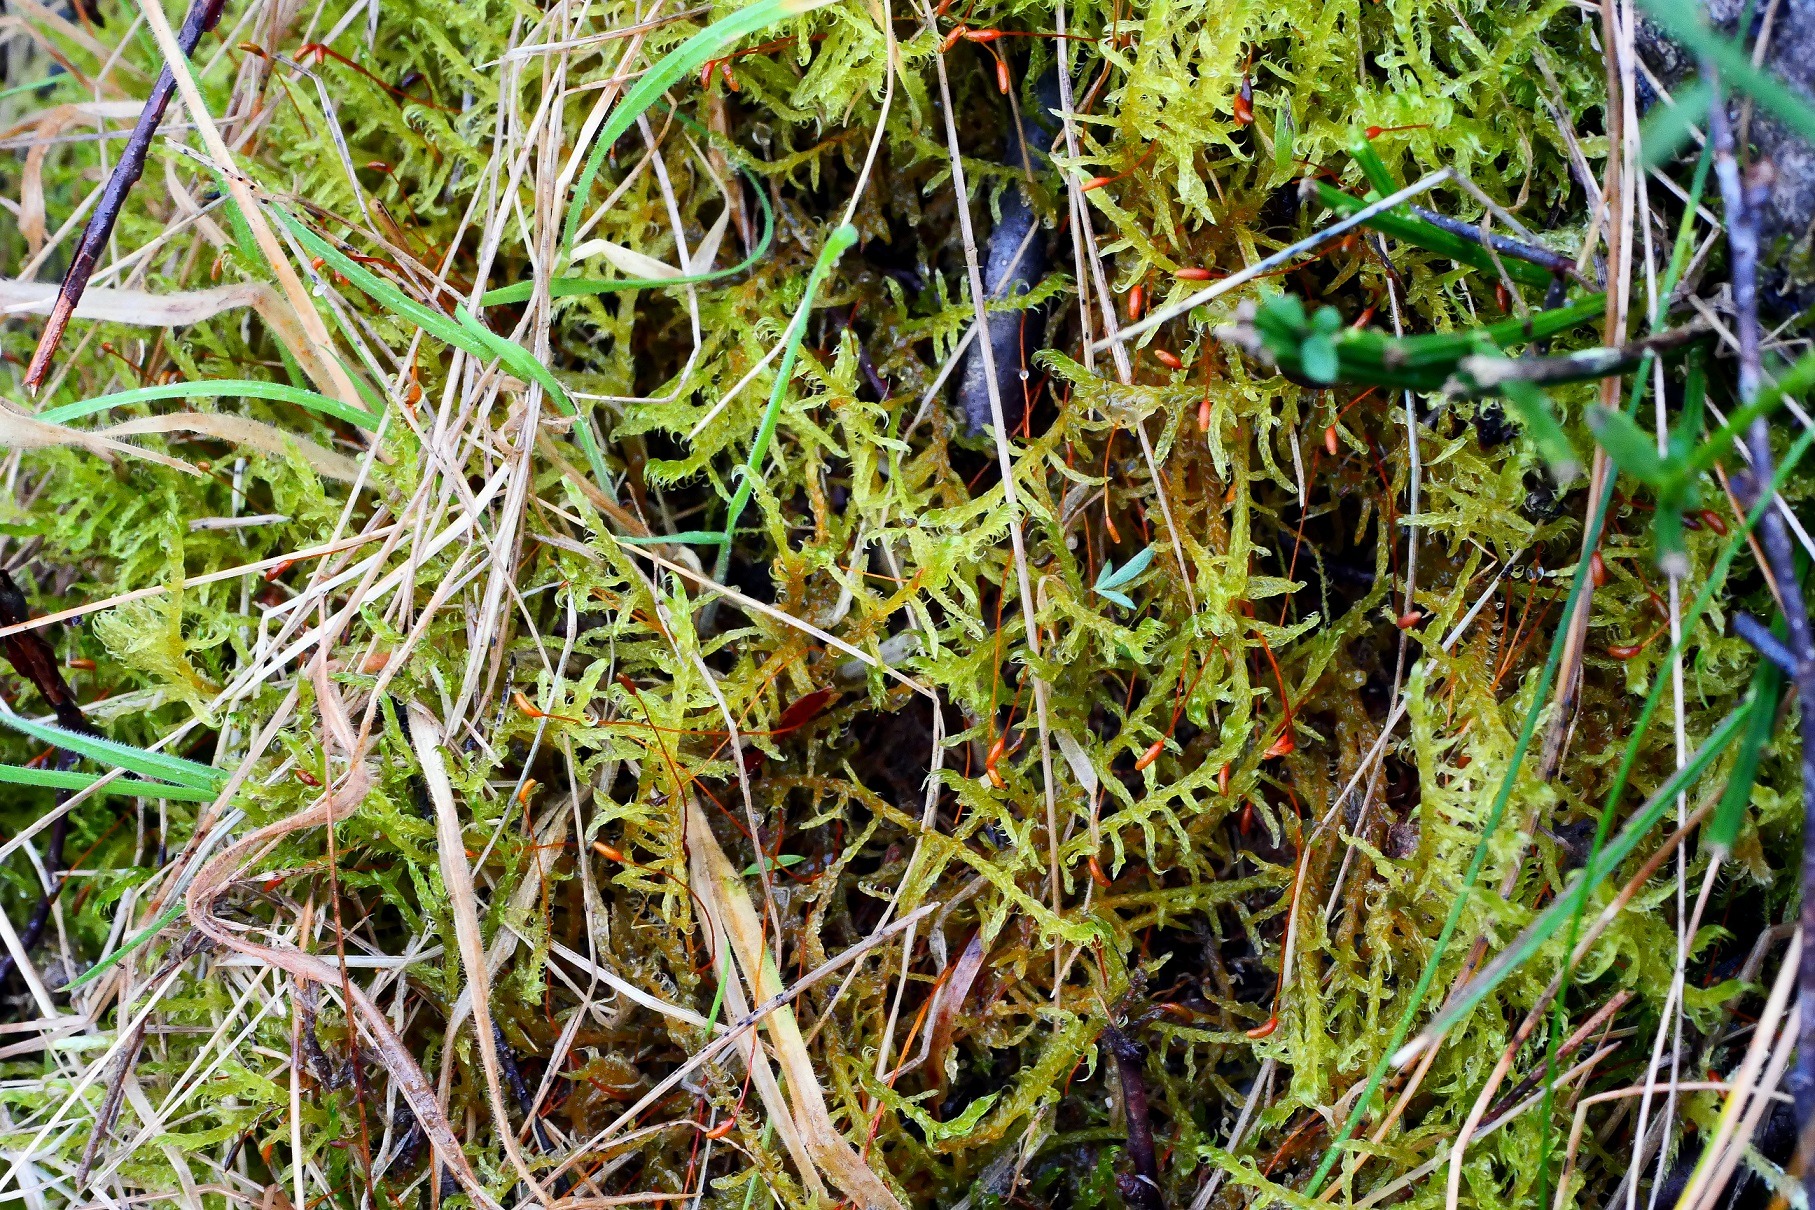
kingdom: Plantae
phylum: Bryophyta
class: Bryopsida
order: Hypnales
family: Scorpidiaceae
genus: Sanionia
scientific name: Sanionia uncinata
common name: Stribet krogblad
